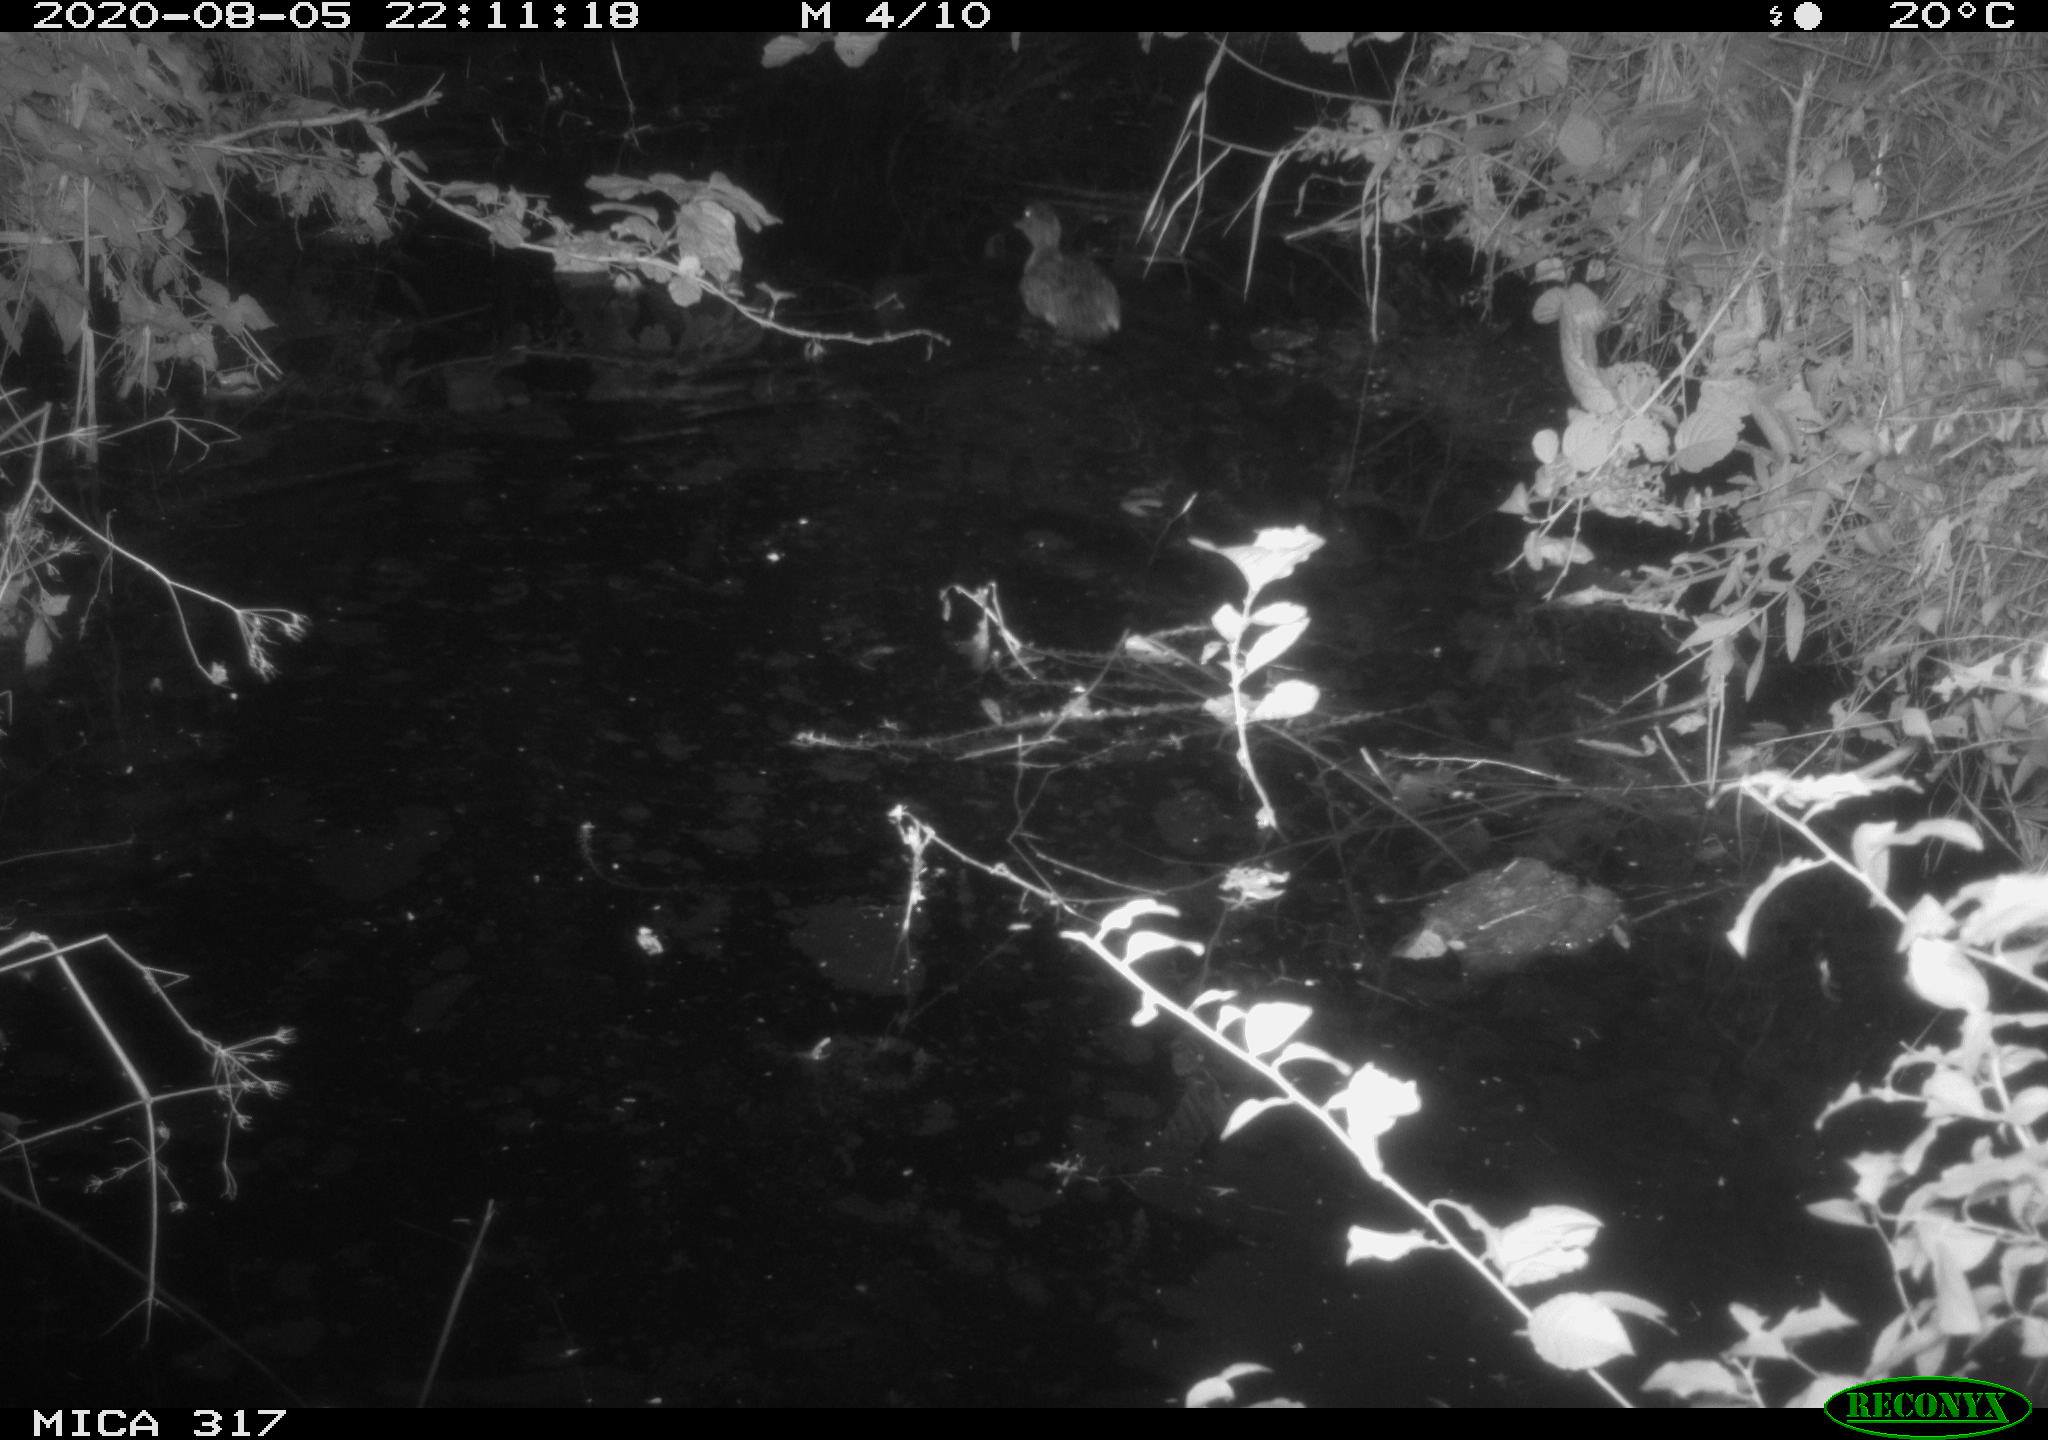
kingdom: Animalia
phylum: Chordata
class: Aves
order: Anseriformes
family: Anatidae
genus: Anas
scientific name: Anas platyrhynchos
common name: Mallard
